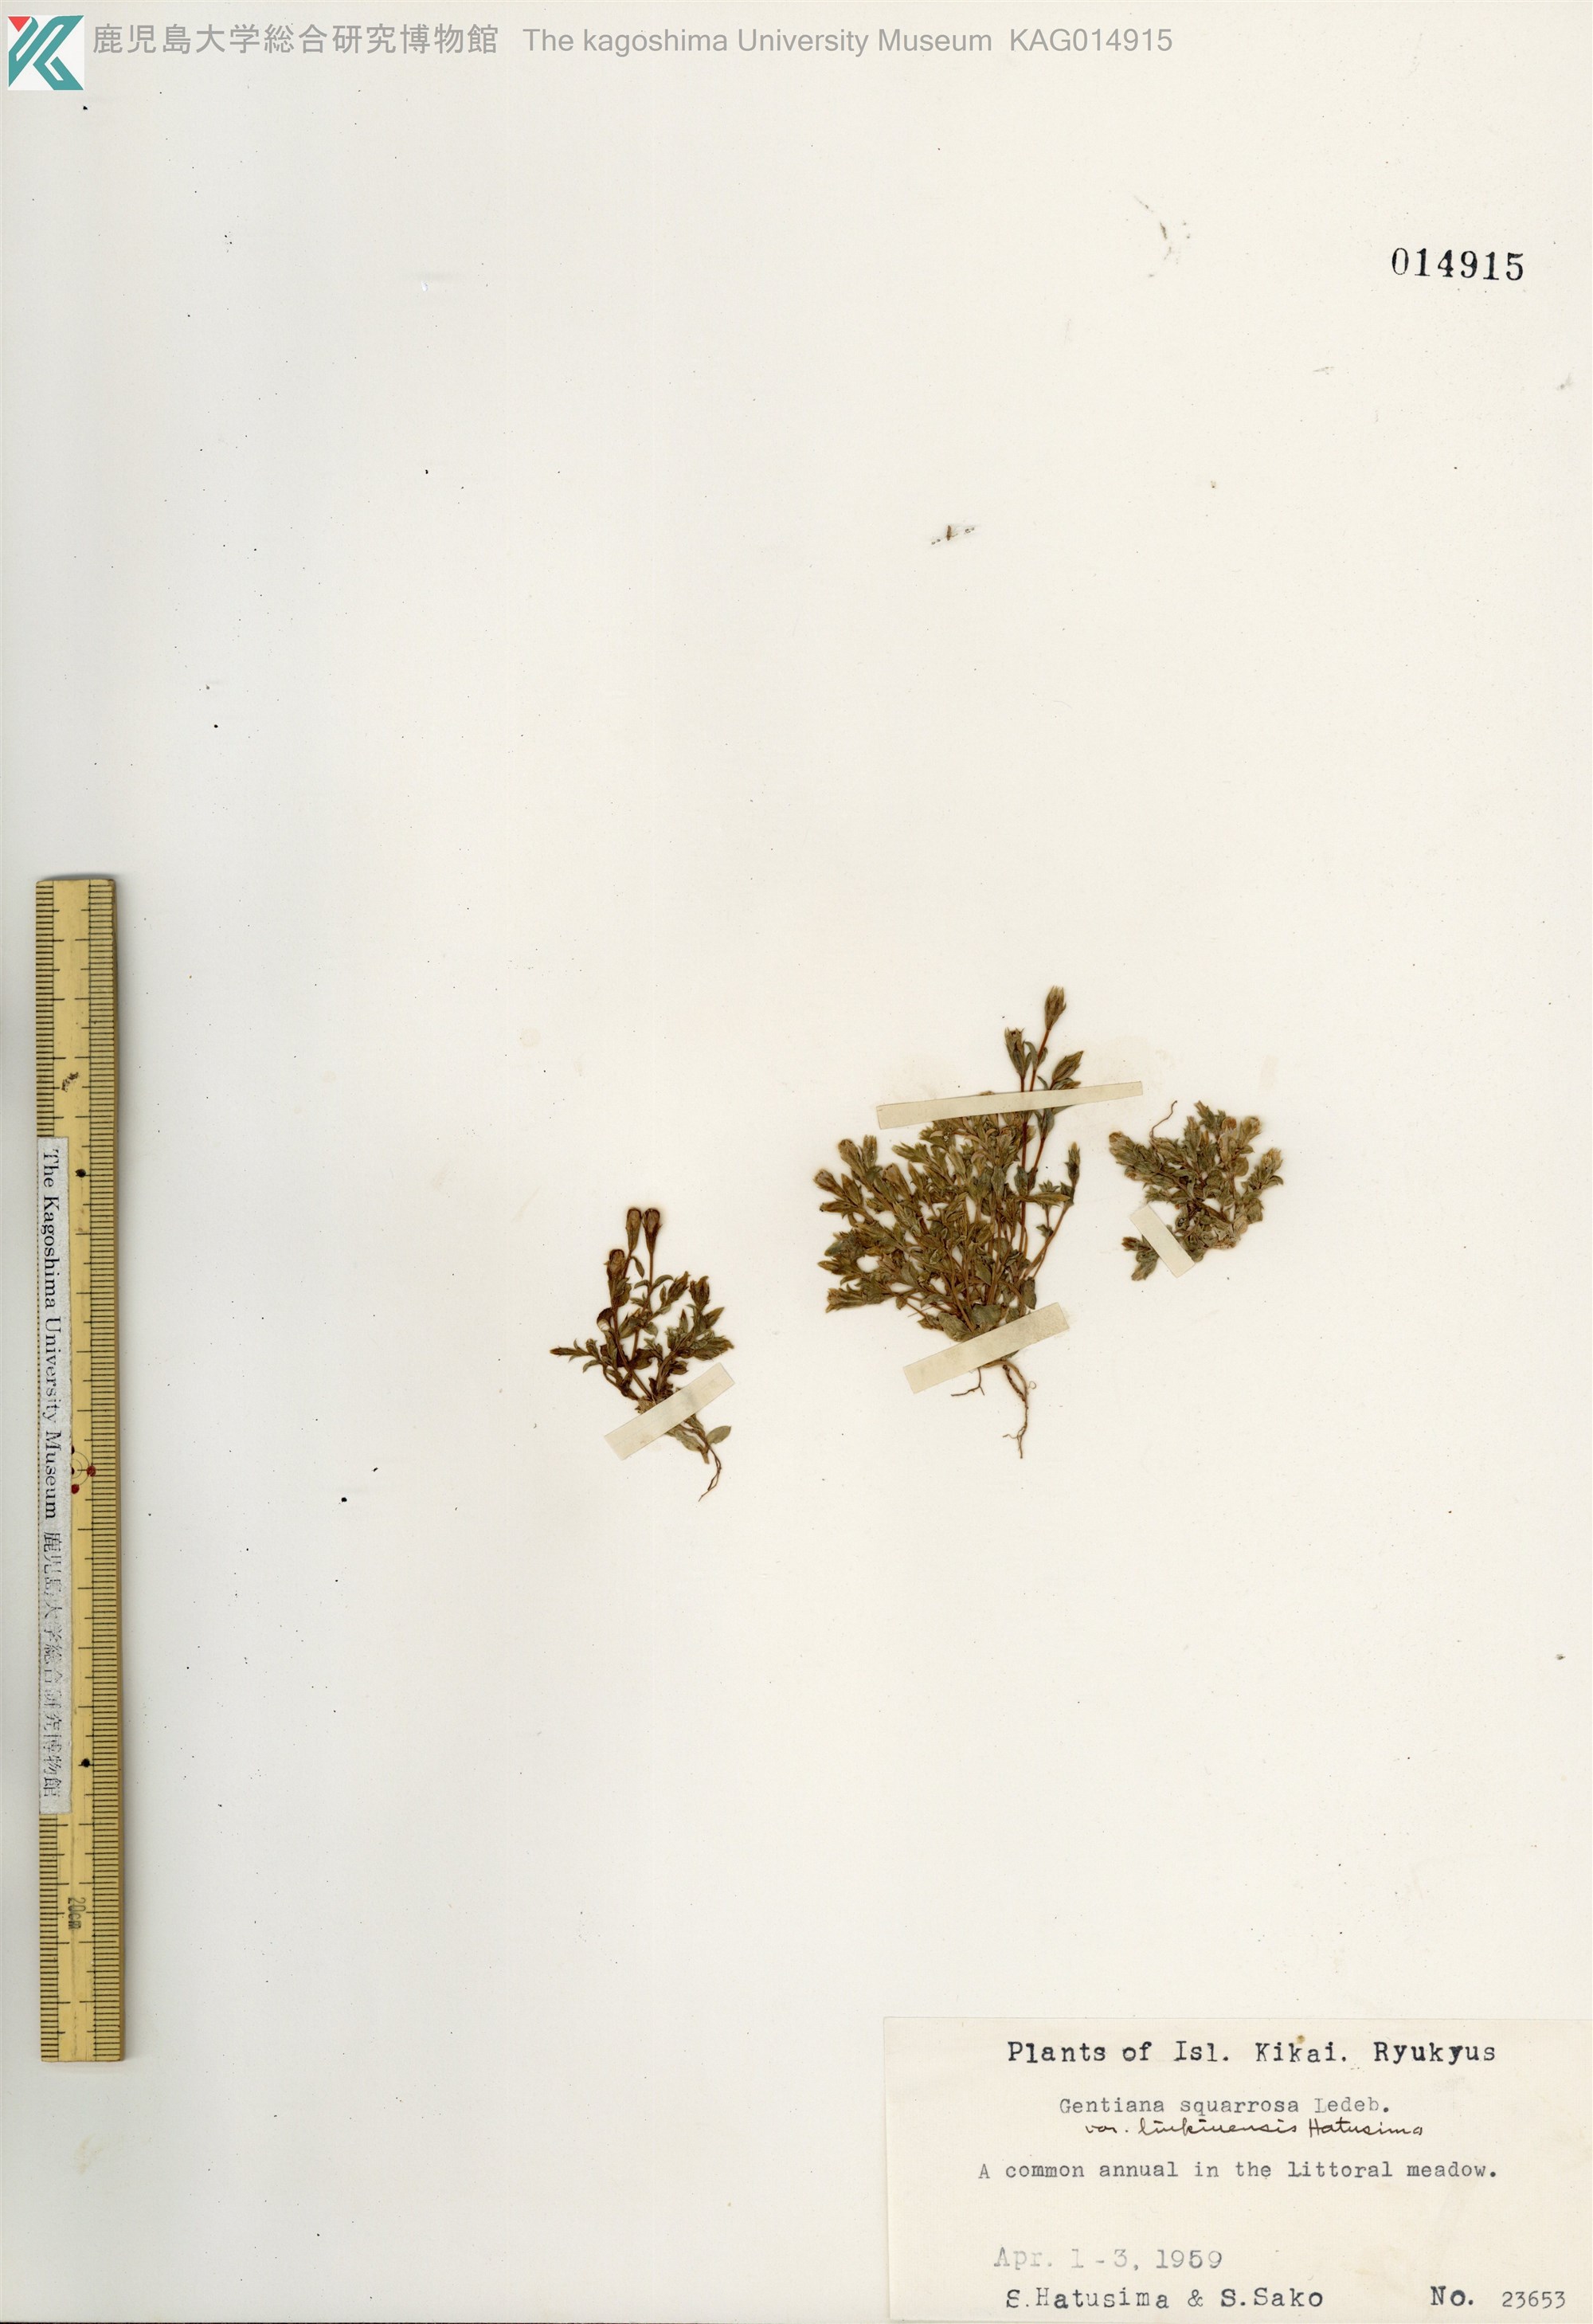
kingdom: Plantae
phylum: Tracheophyta
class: Magnoliopsida
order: Gentianales
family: Gentianaceae
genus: Gentiana
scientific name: Gentiana satsunanensis
